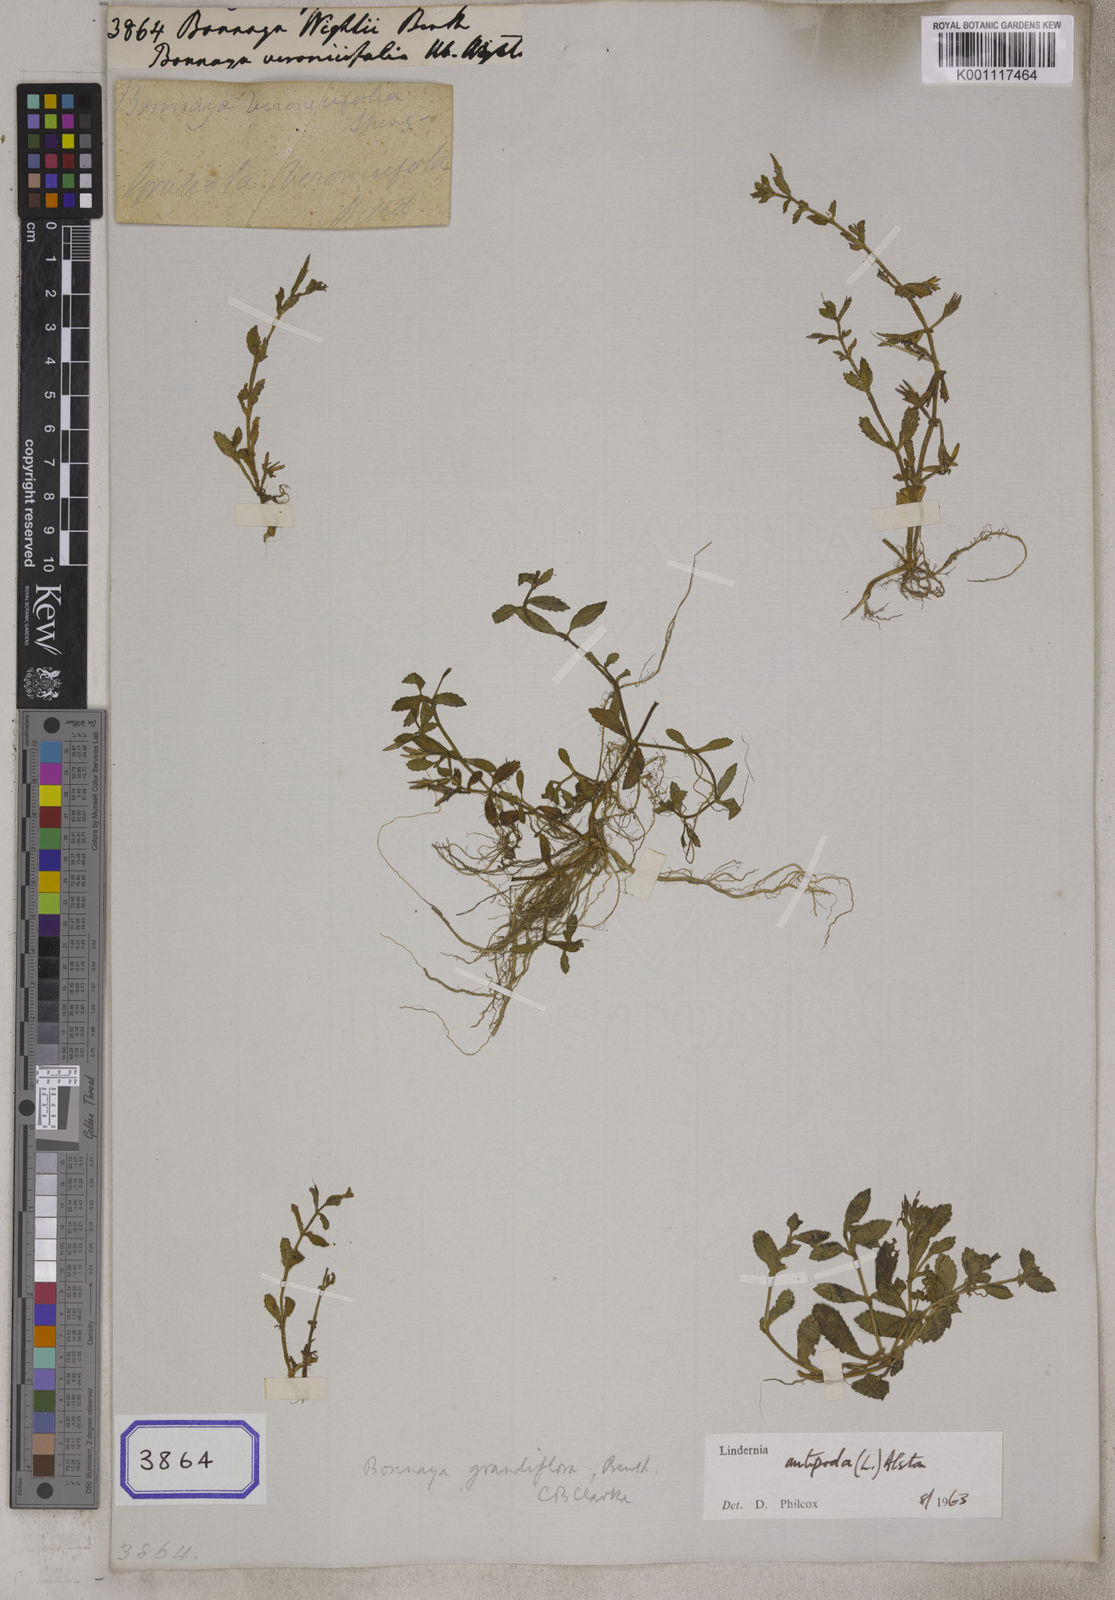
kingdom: Plantae
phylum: Tracheophyta
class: Magnoliopsida
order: Lamiales
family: Linderniaceae
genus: Bonnaya
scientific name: Bonnaya
